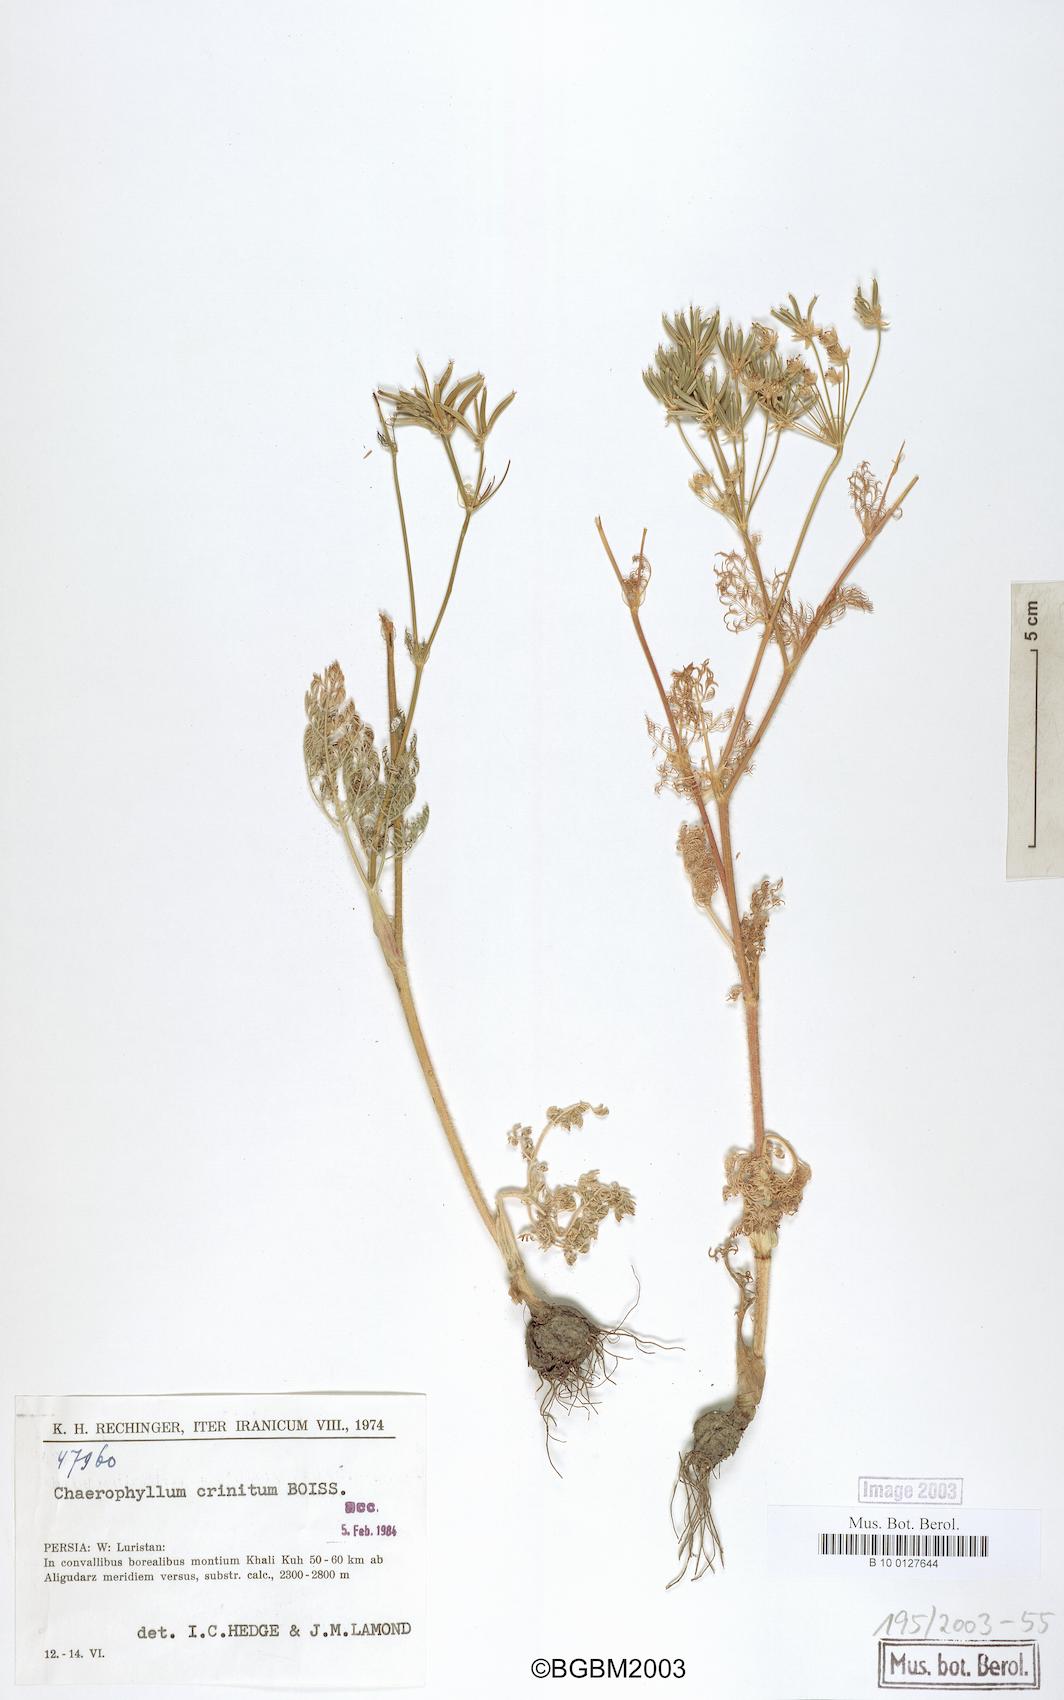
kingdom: Plantae
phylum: Tracheophyta
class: Magnoliopsida
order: Apiales
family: Apiaceae
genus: Chaerophyllum
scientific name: Chaerophyllum crinitum
